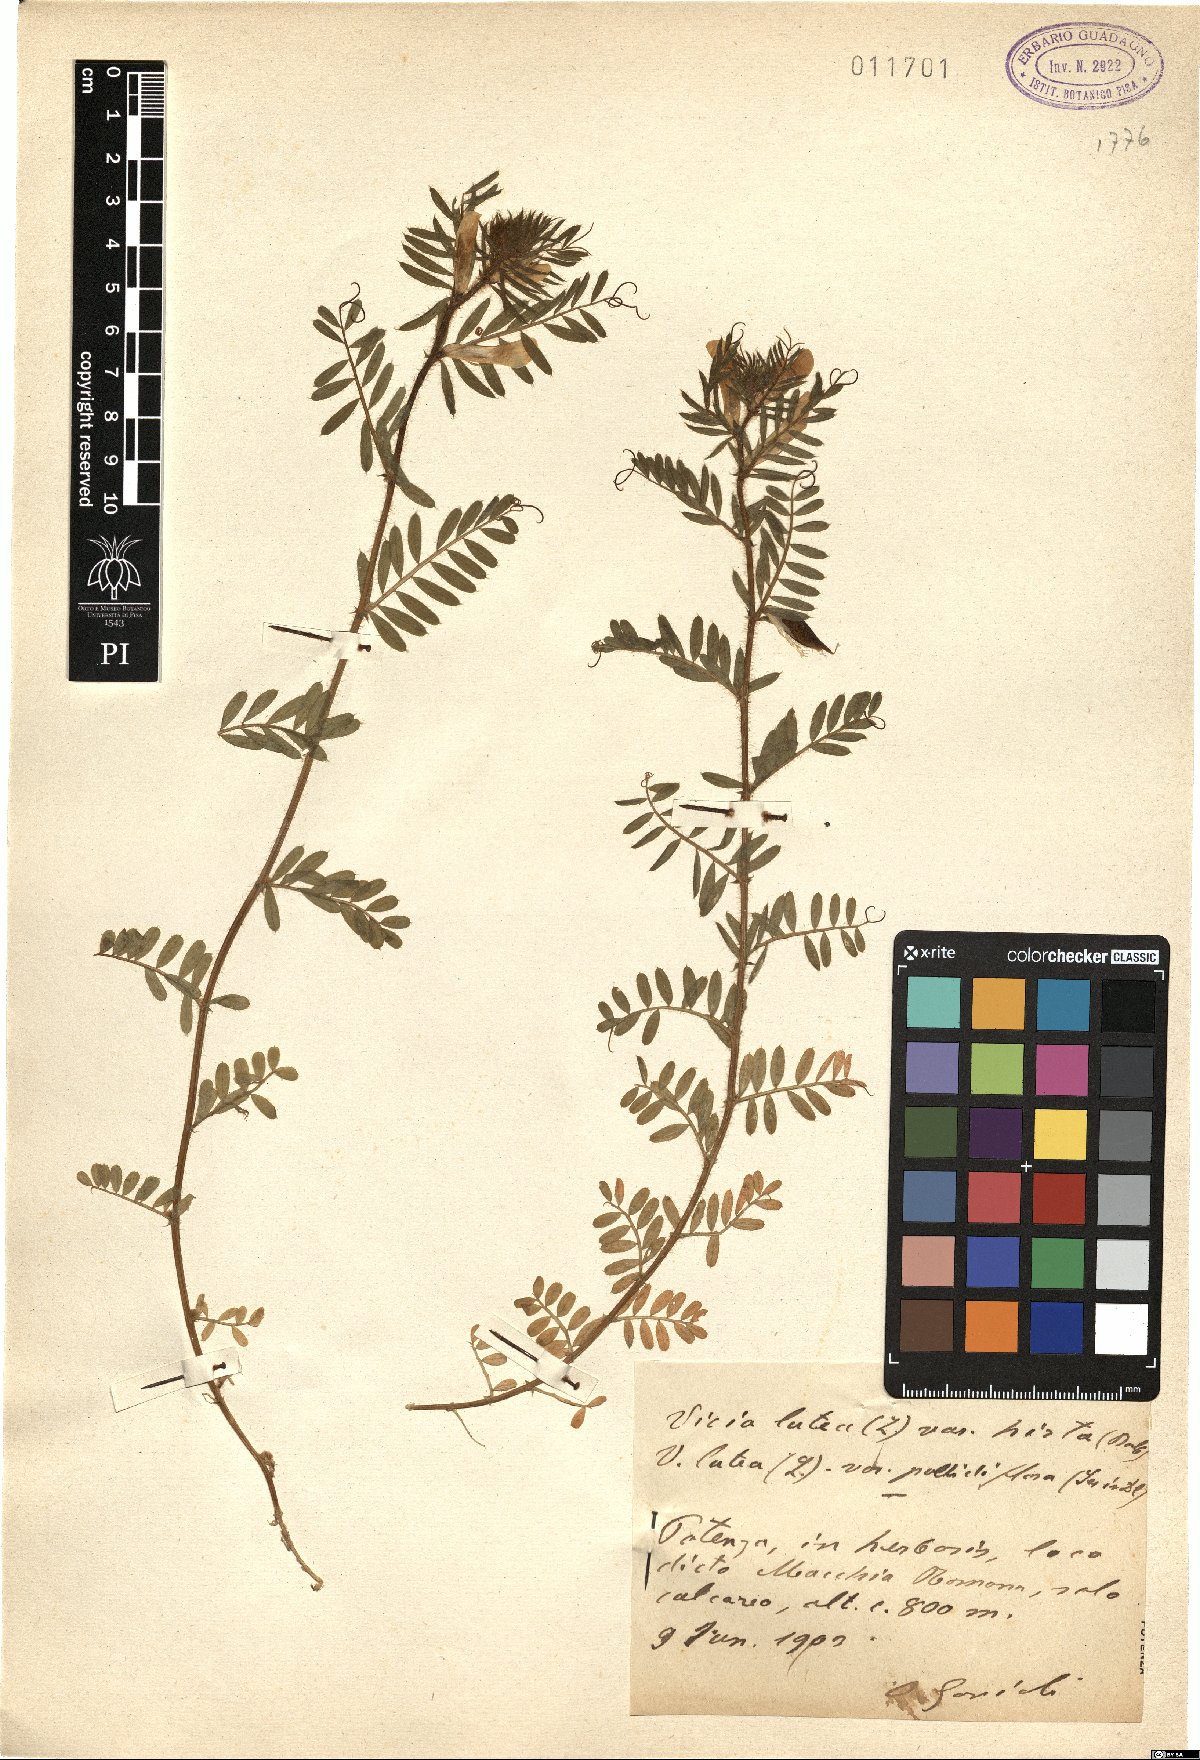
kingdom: Plantae
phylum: Tracheophyta
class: Magnoliopsida
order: Fabales
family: Fabaceae
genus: Vicia
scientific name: Vicia lutea
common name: Smooth yellow vetch
